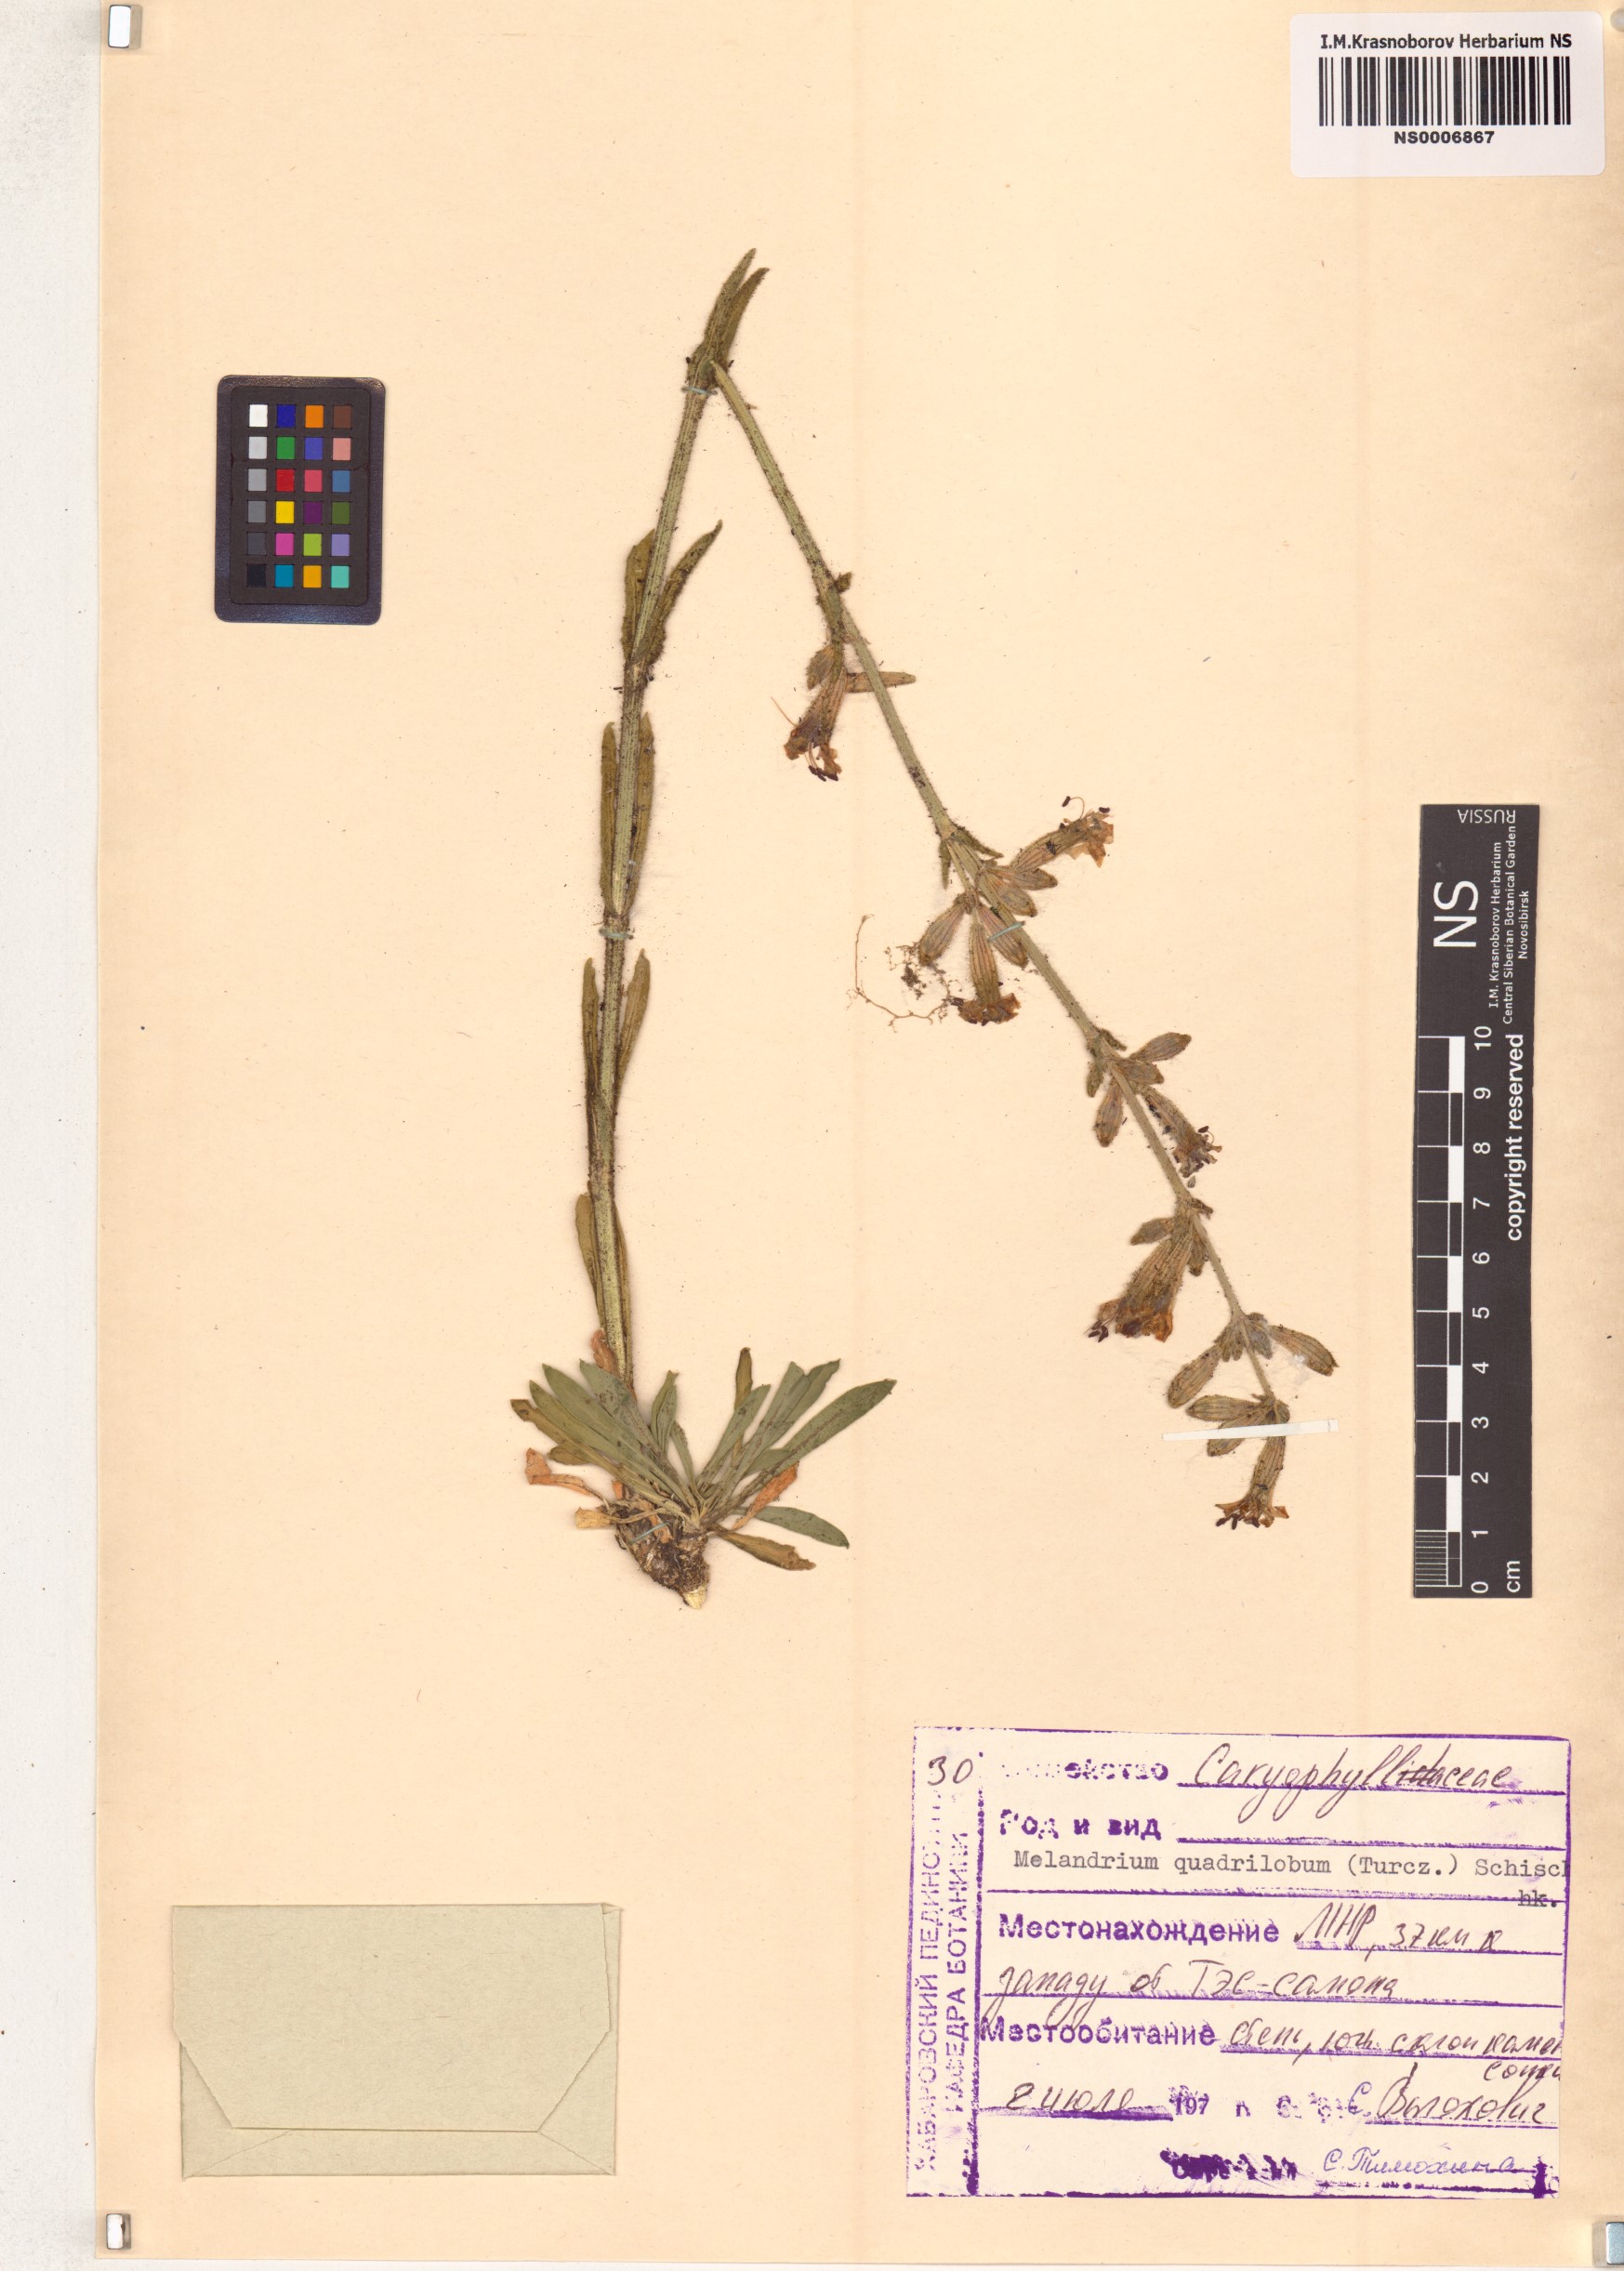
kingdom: Plantae
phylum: Tracheophyta
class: Magnoliopsida
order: Caryophyllales
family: Caryophyllaceae
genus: Silene
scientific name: Silene quadriloba
